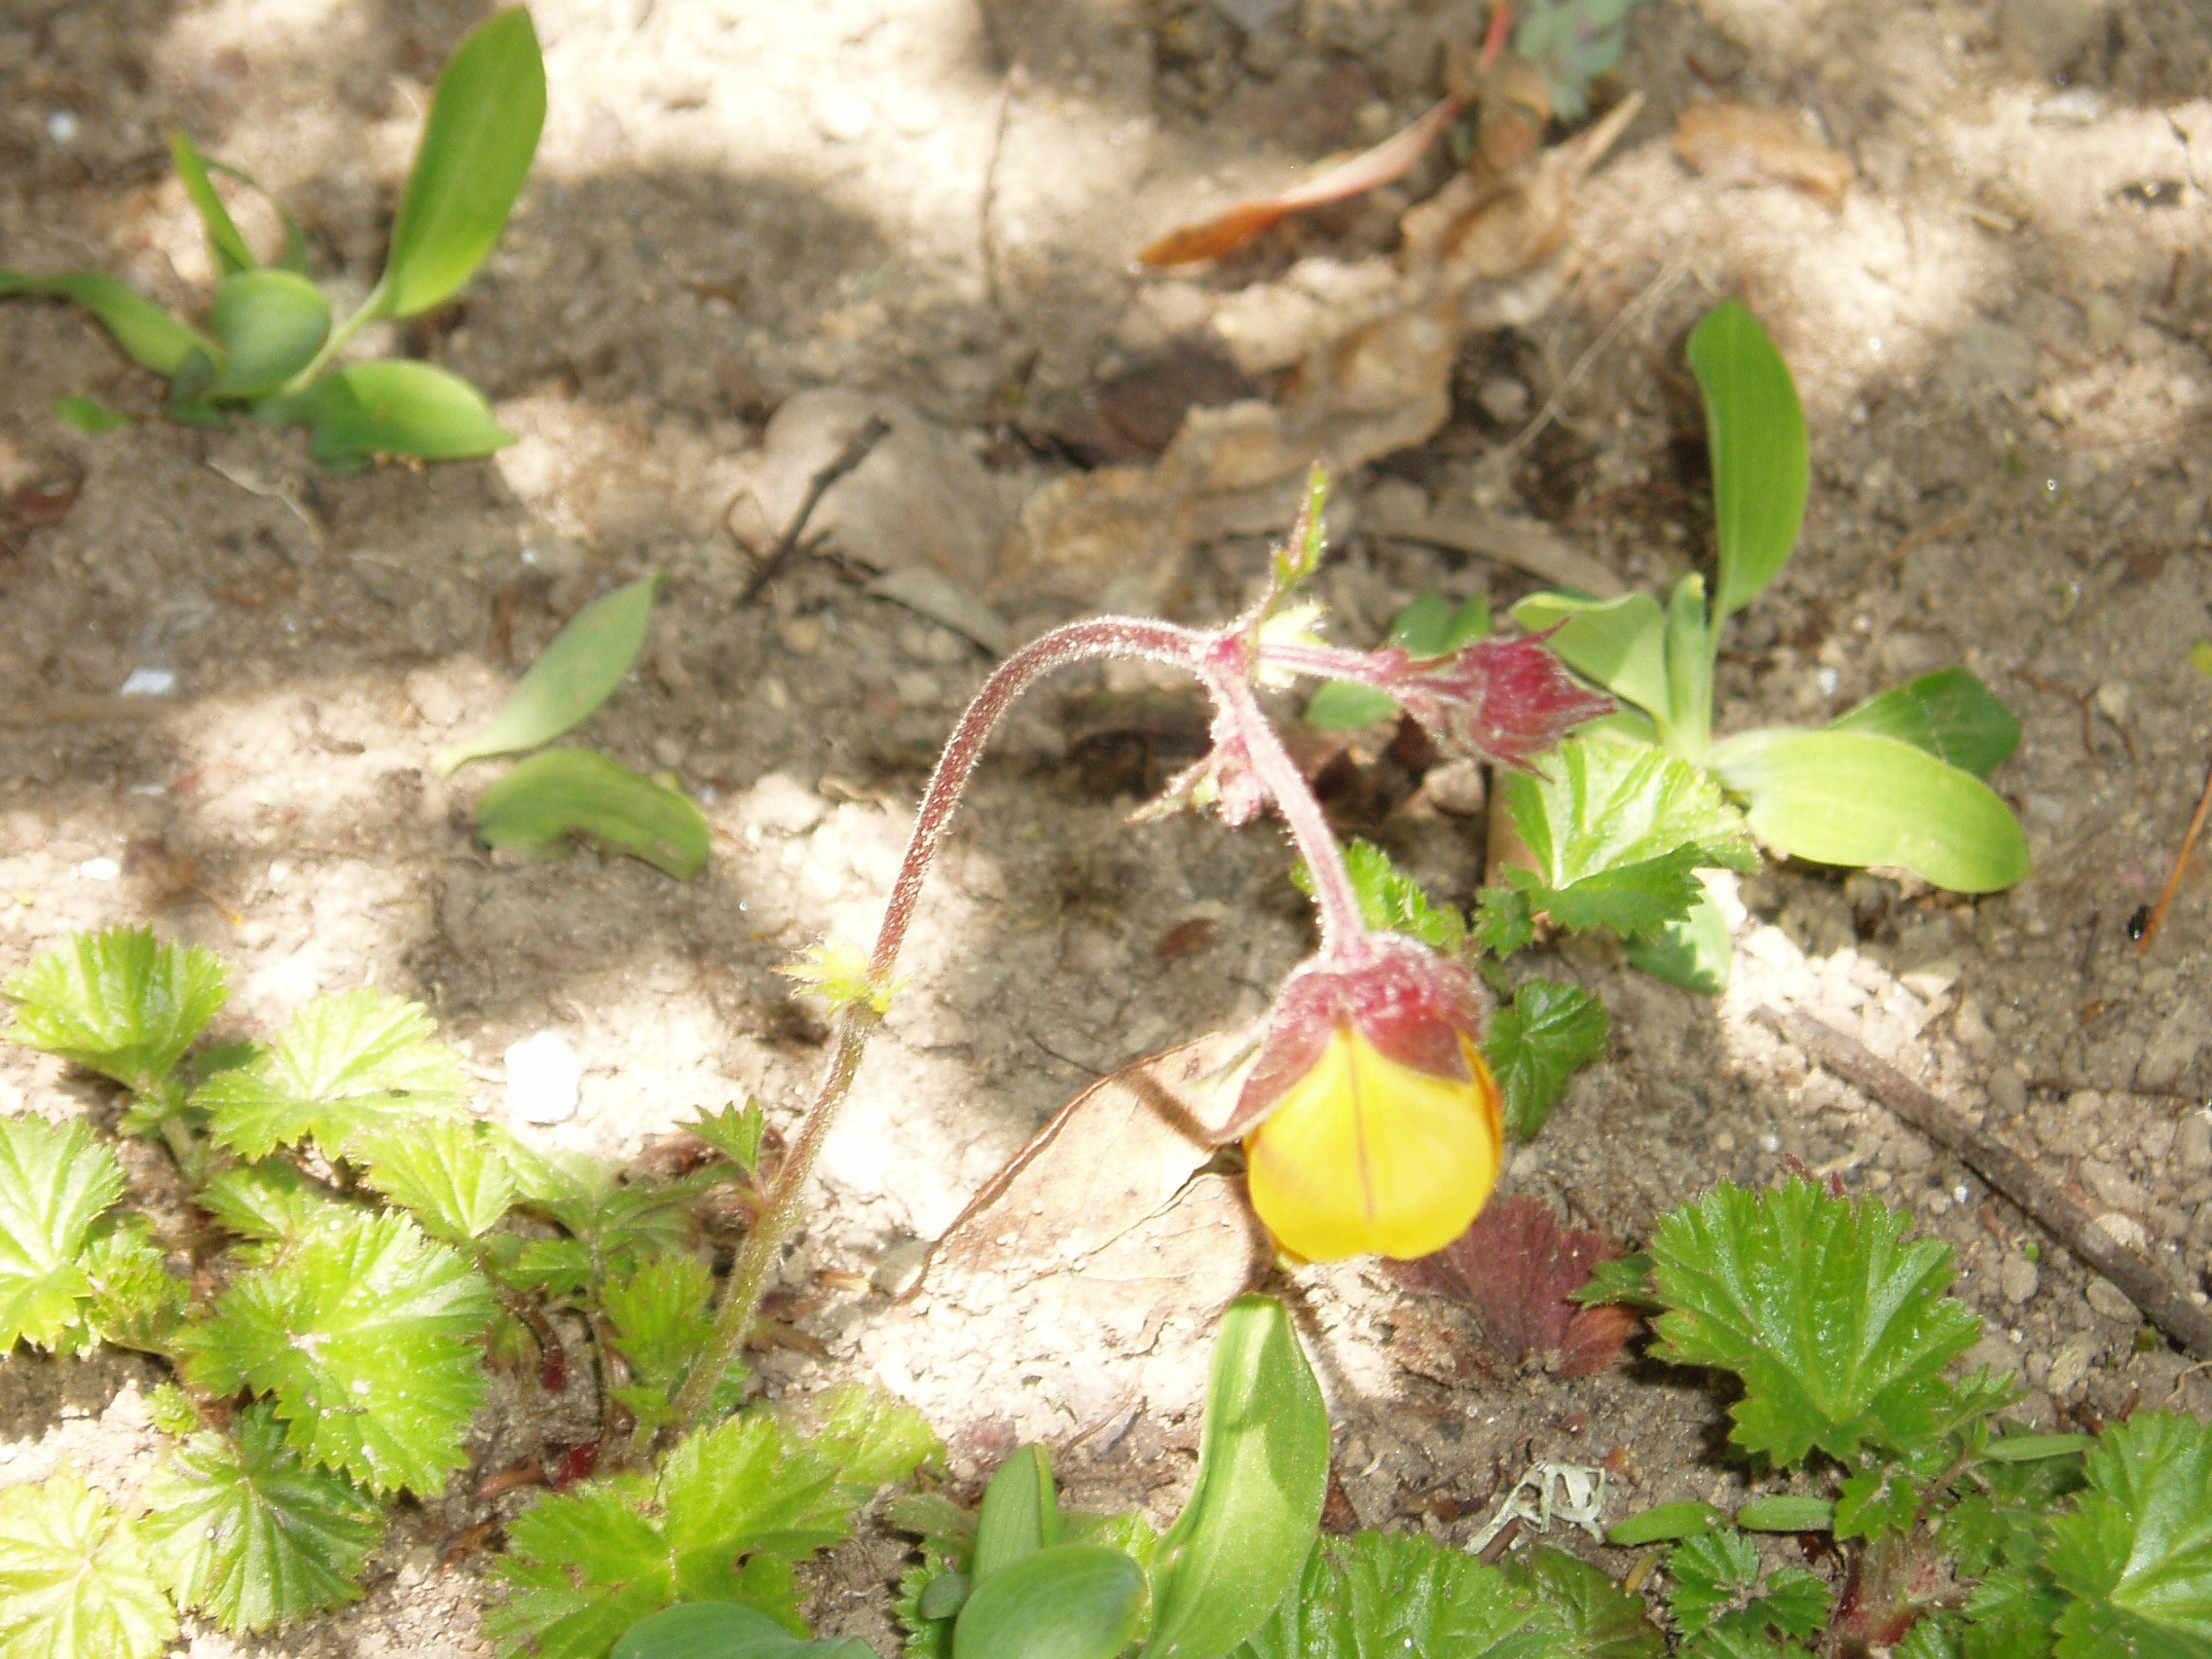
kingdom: Plantae
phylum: Tracheophyta
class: Magnoliopsida
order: Rosales
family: Rosaceae
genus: Geum
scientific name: Geum
